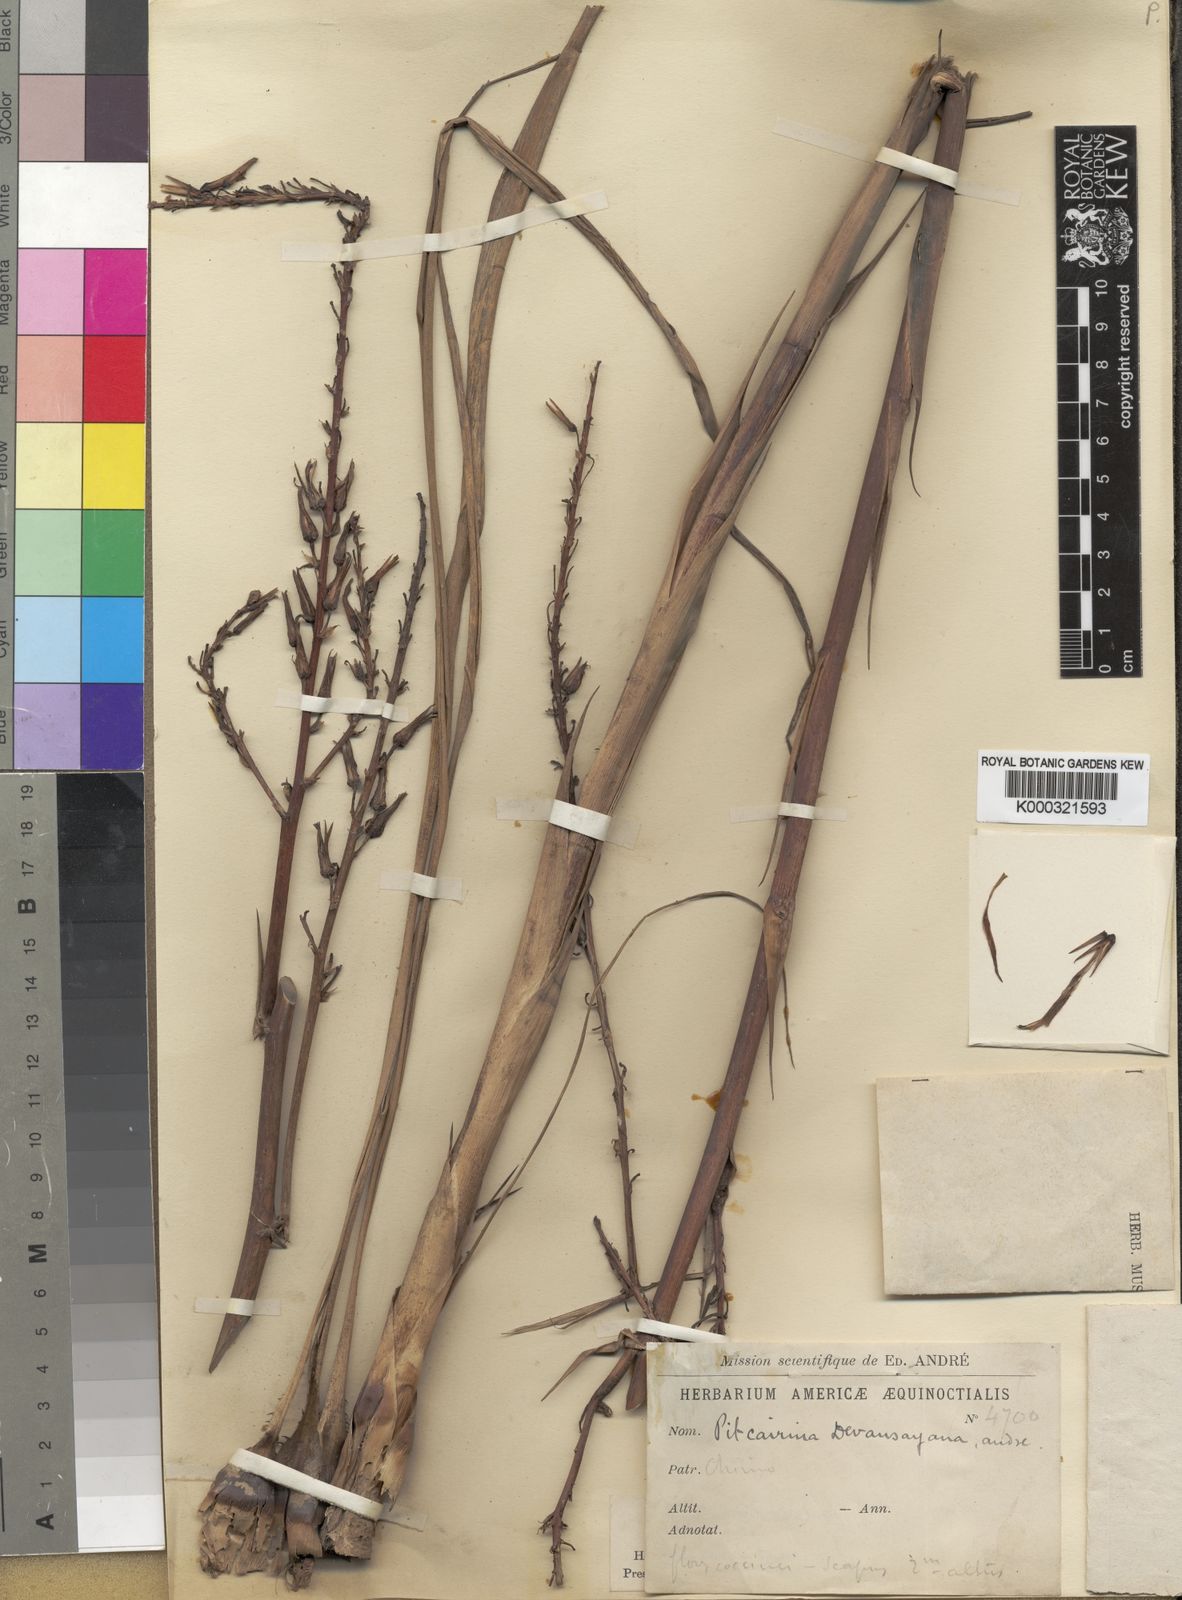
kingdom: Plantae
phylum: Tracheophyta
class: Liliopsida
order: Poales
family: Bromeliaceae
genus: Pitcairnia
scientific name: Pitcairnia devansayana
